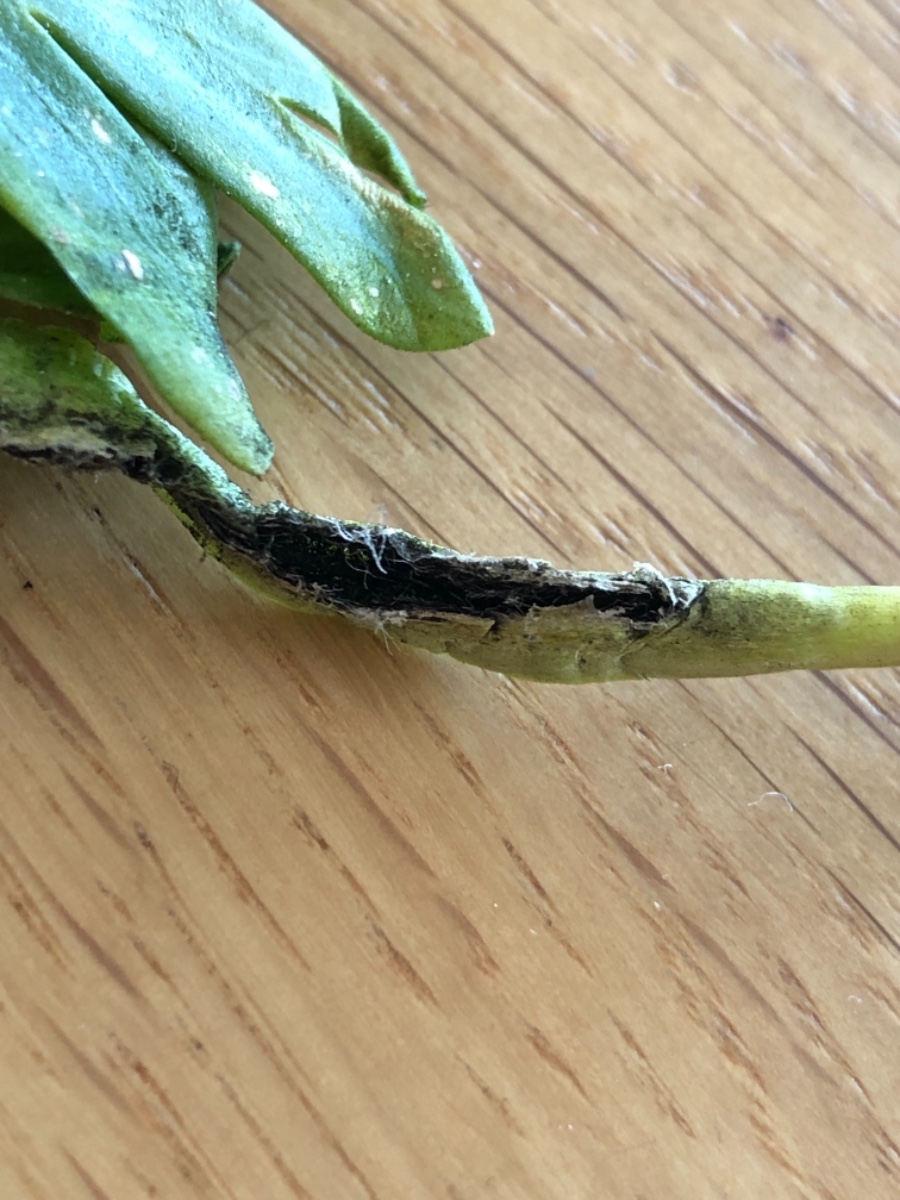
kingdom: Fungi
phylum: Basidiomycota
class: Ustilaginomycetes
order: Urocystidales
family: Urocystidaceae
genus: Urocystis
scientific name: Urocystis eranthidis
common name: erantis-brand
